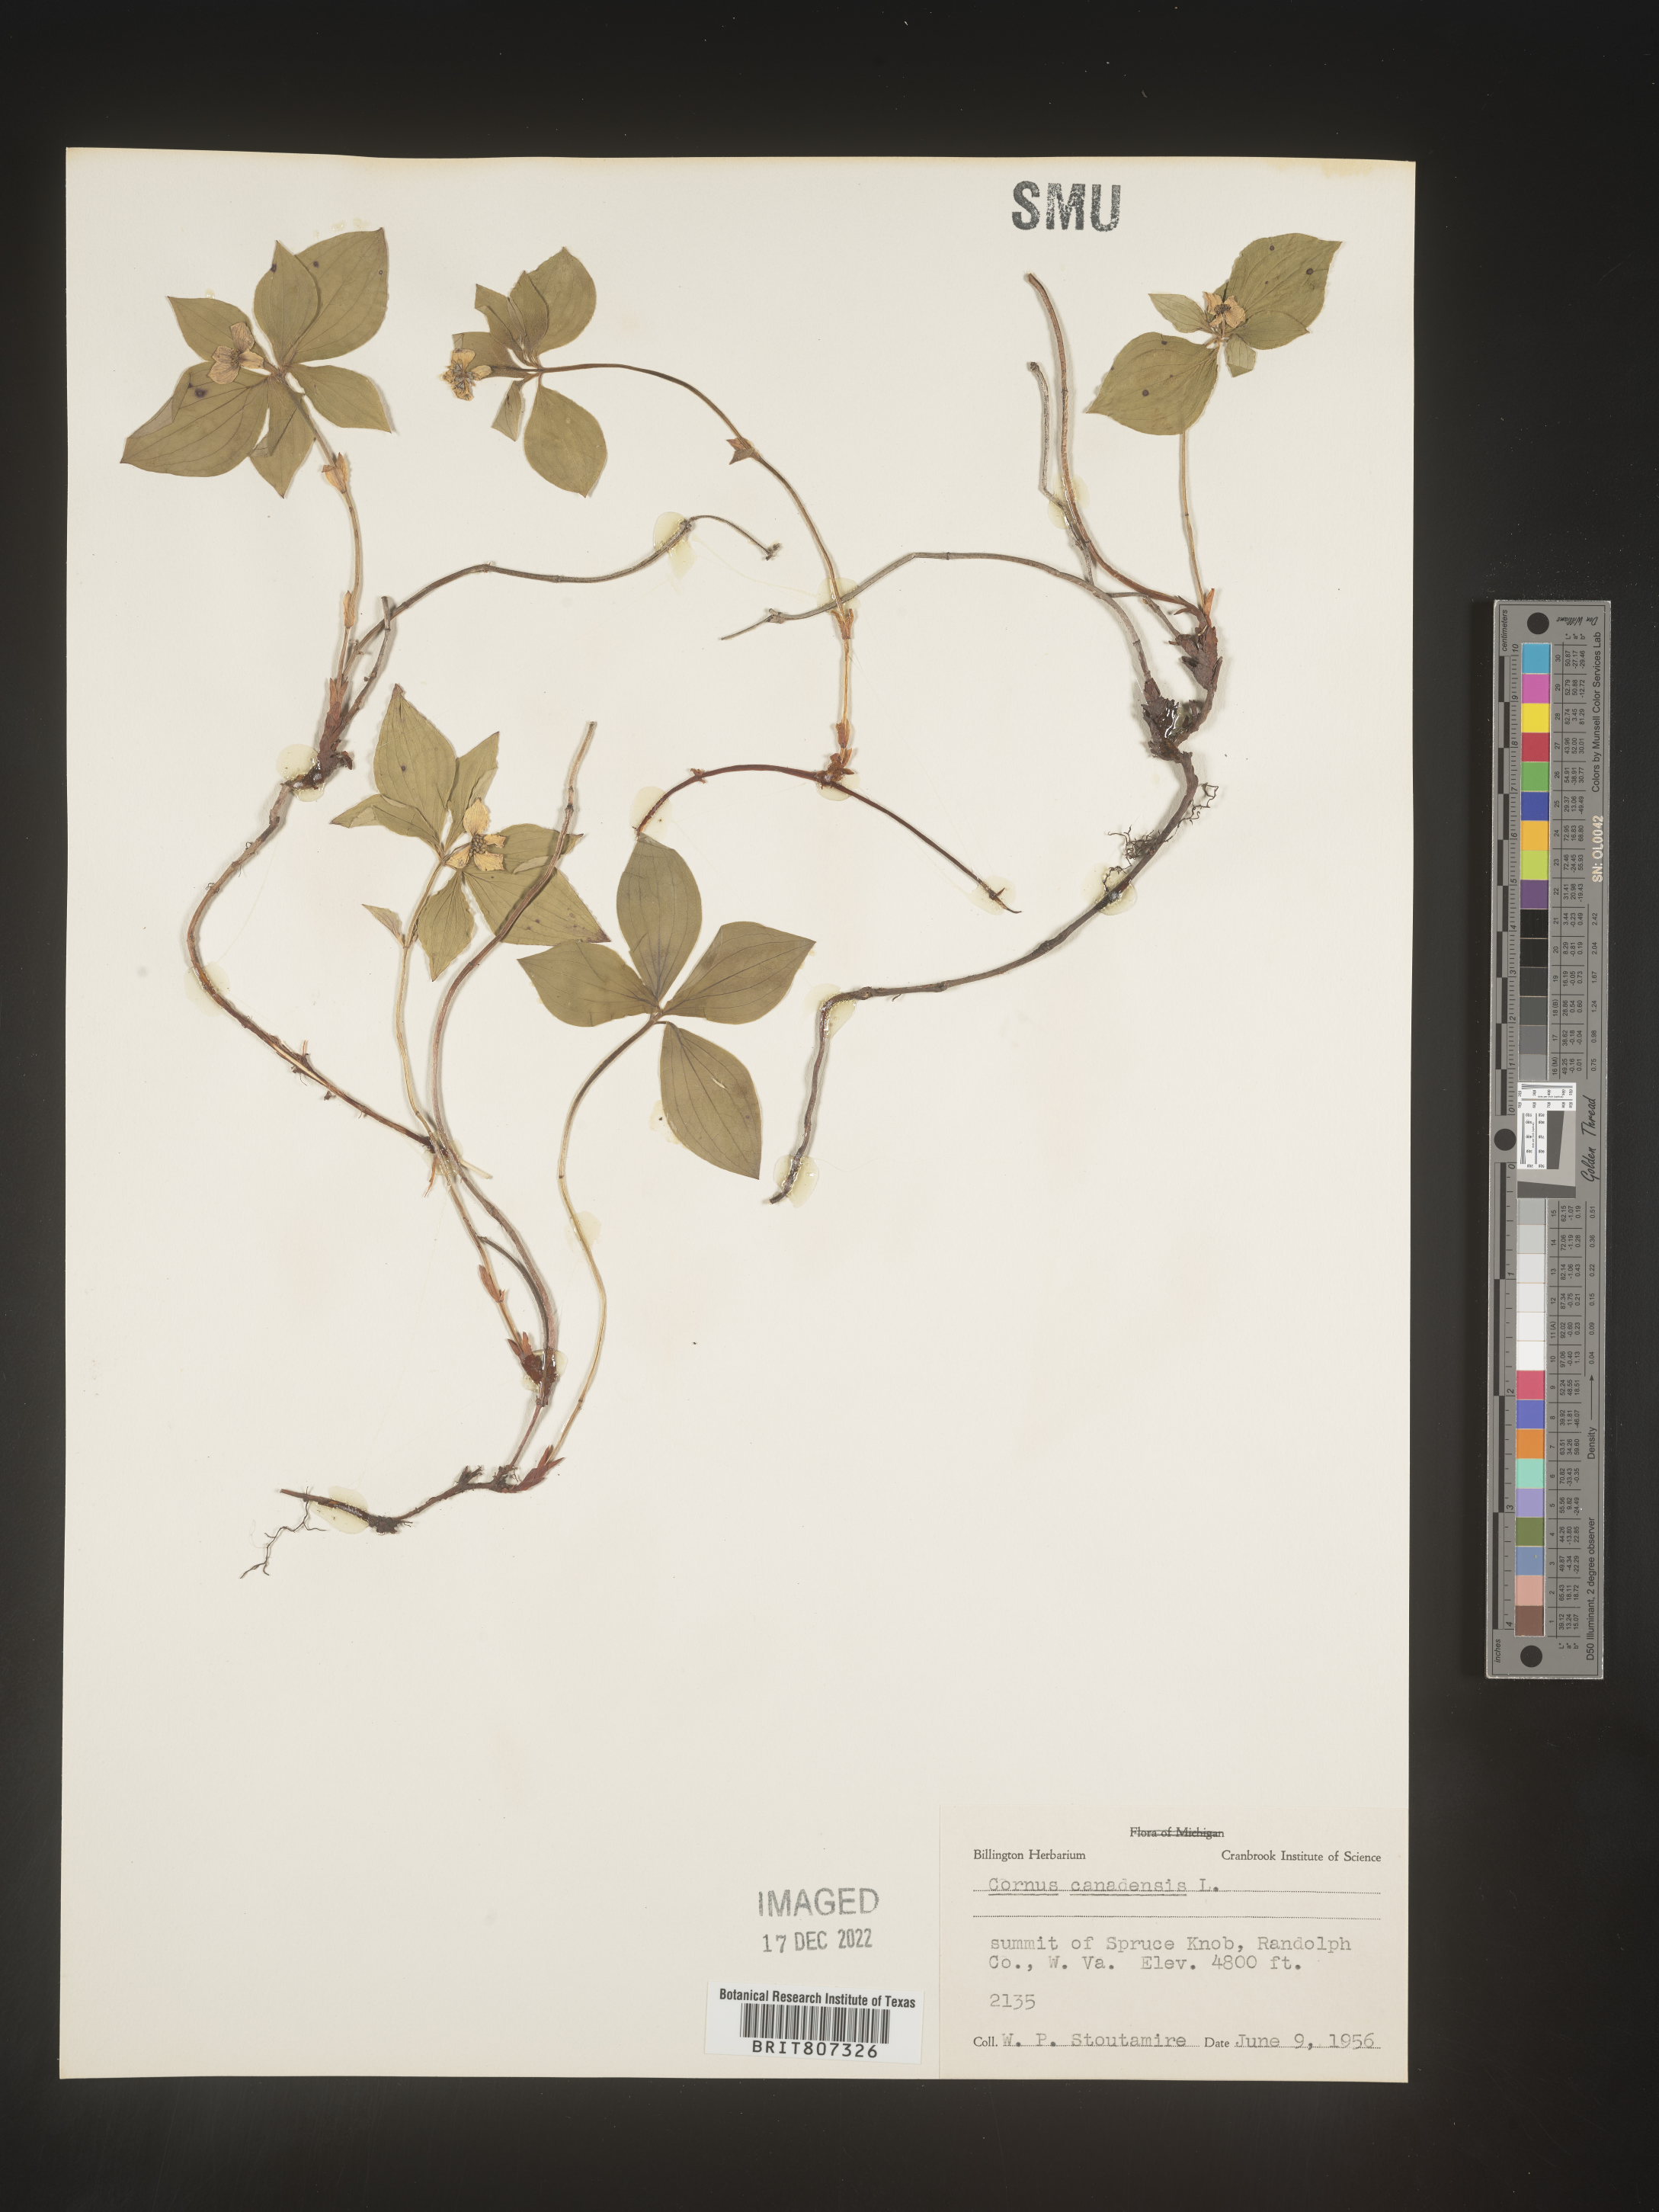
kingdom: Plantae
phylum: Tracheophyta
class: Magnoliopsida
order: Cornales
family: Cornaceae
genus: Cornus
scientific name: Cornus canadensis
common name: Creeping dogwood
